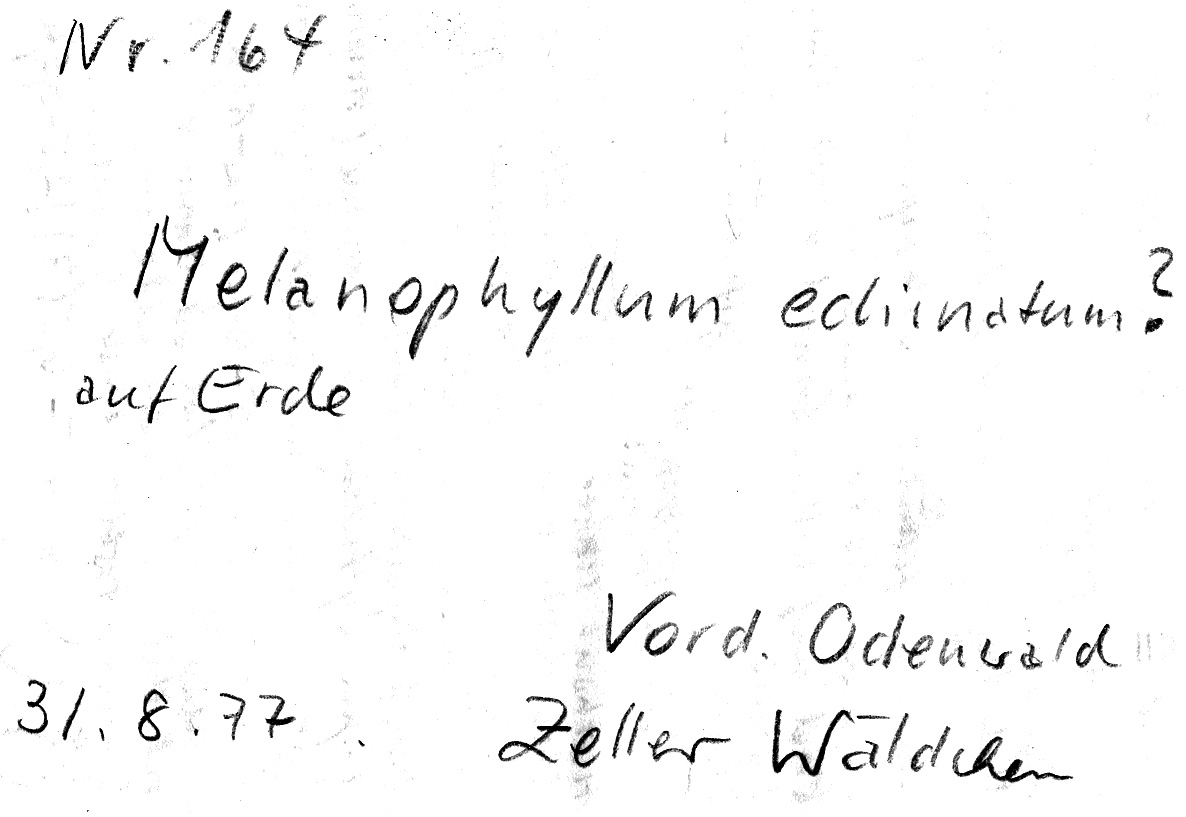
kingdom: Fungi
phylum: Basidiomycota
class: Agaricomycetes
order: Agaricales
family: Agaricaceae
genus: Melanophyllum
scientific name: Melanophyllum haematospermum
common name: Redspored dapperling
